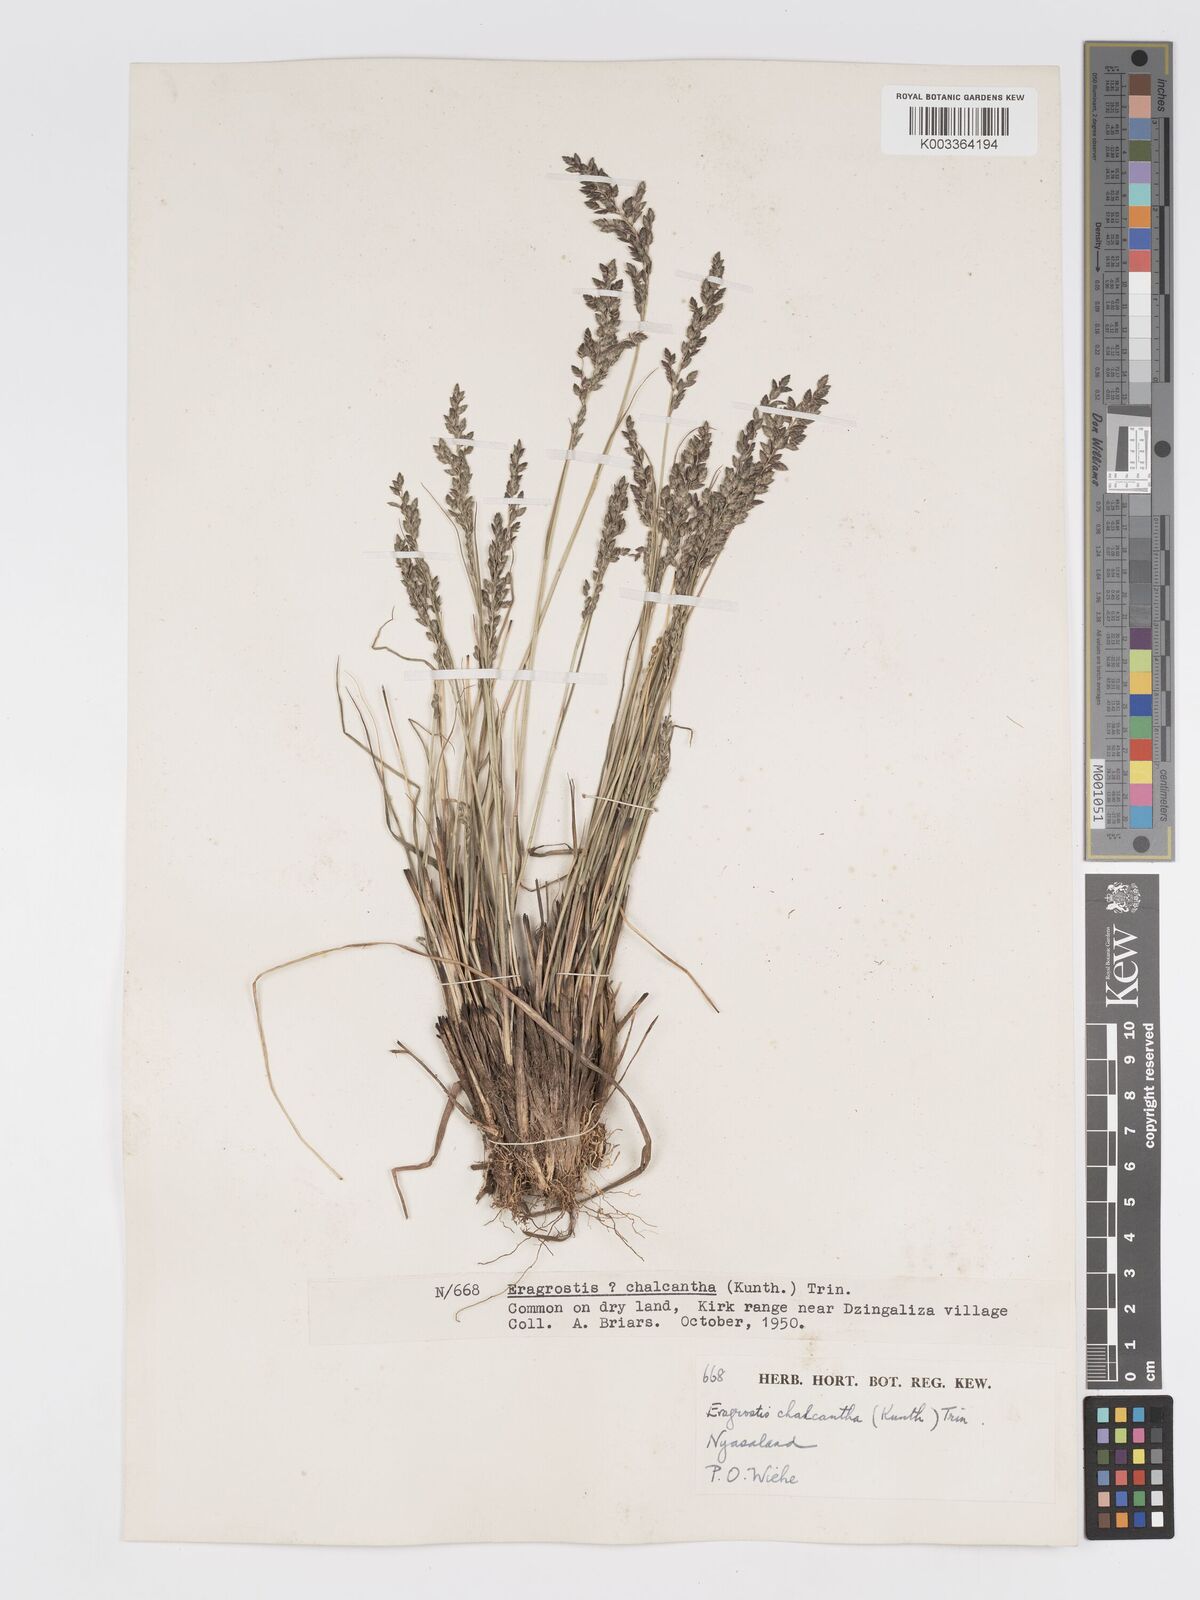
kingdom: Plantae
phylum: Tracheophyta
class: Liliopsida
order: Poales
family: Poaceae
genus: Eragrostis
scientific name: Eragrostis racemosa
